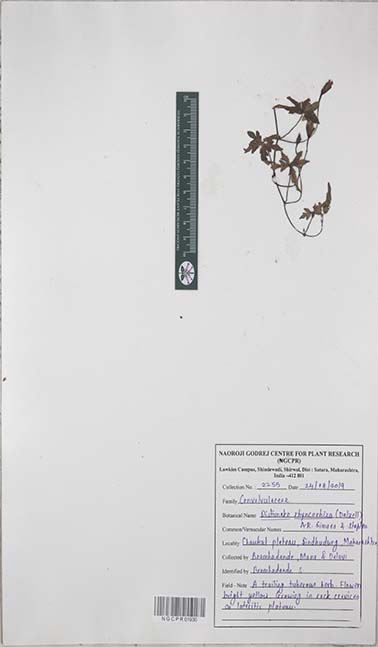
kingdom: Plantae
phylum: Tracheophyta
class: Magnoliopsida
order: Solanales
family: Convolvulaceae
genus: Distimake
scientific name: Distimake rhynchorrhizus
